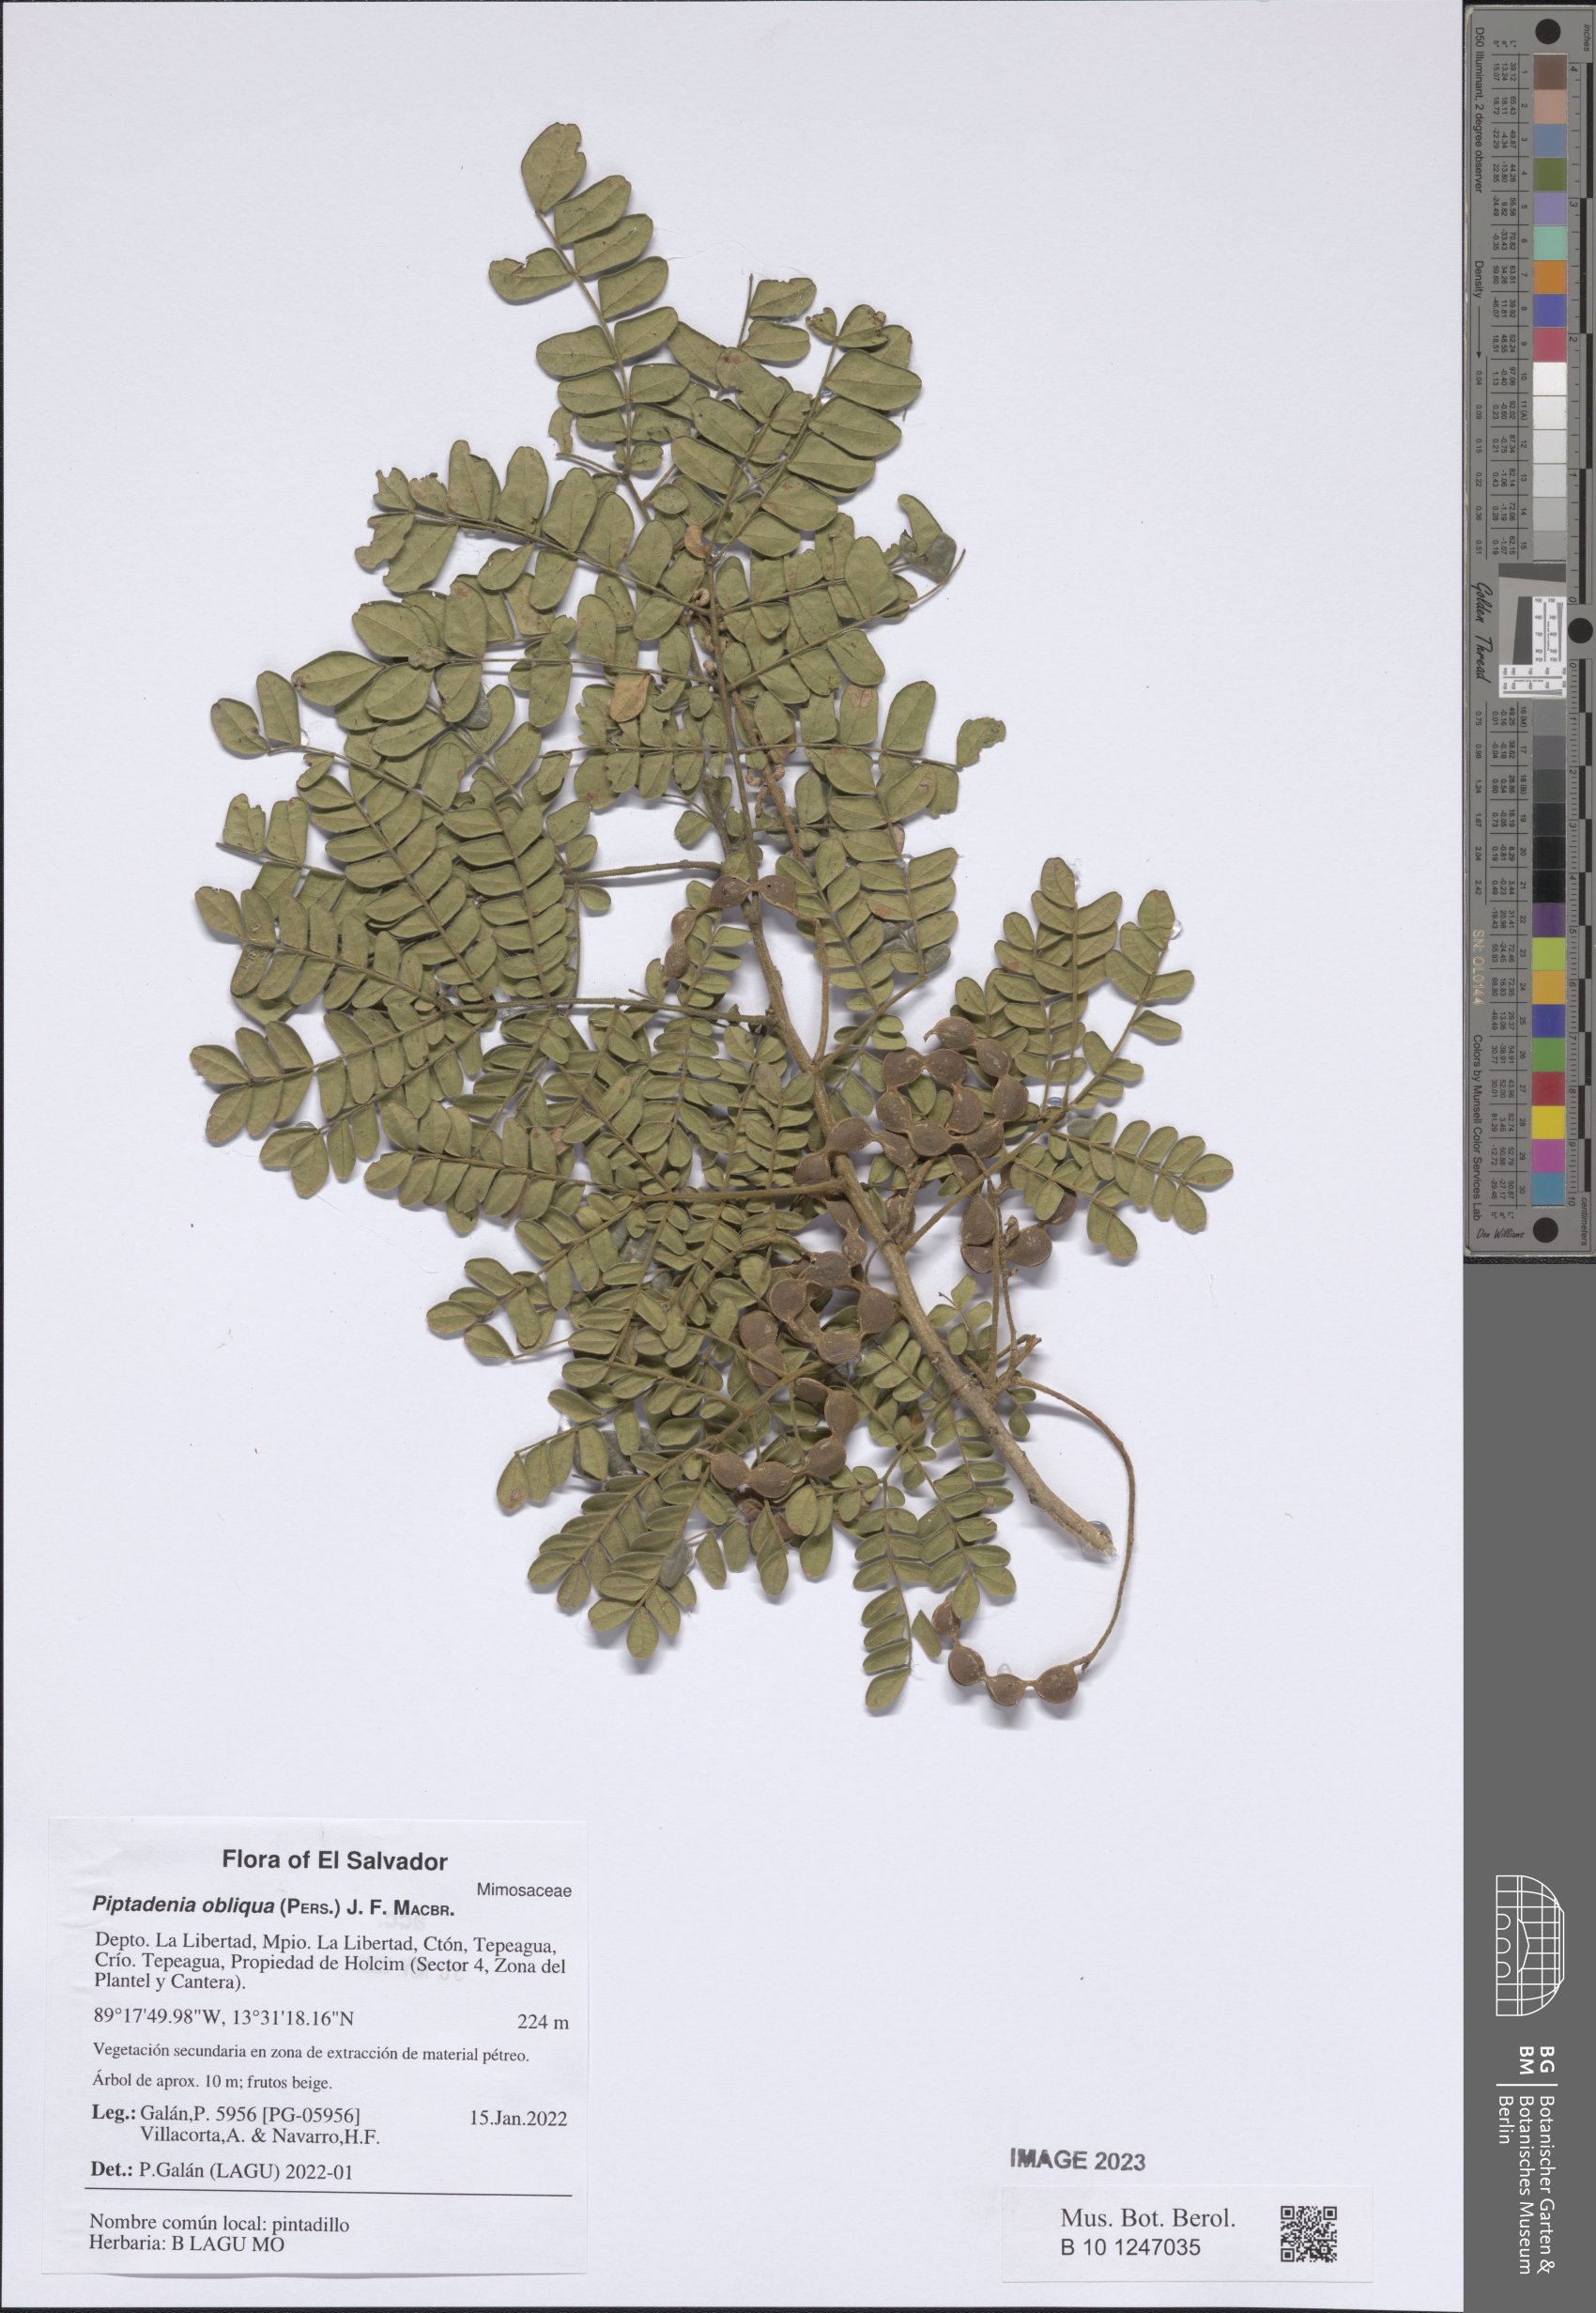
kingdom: Plantae
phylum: Tracheophyta
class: Magnoliopsida
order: Fabales
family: Fabaceae
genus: Pityrocarpa
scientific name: Pityrocarpa obliqua
